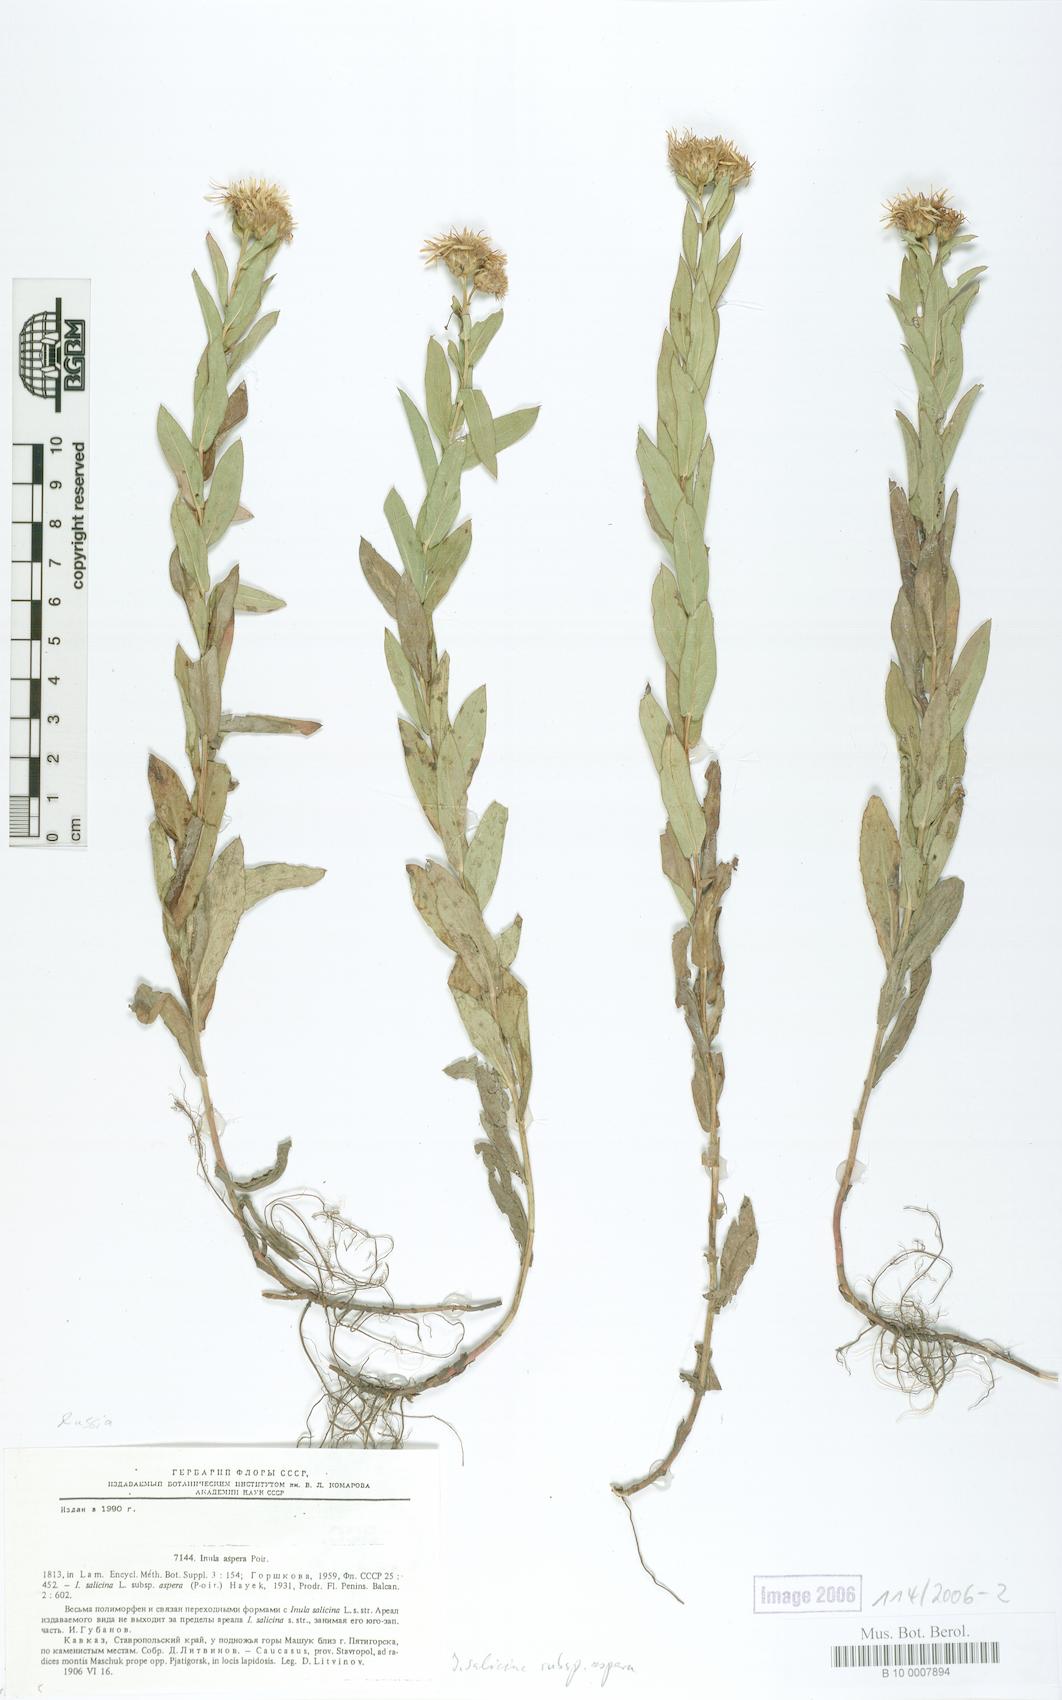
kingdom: Plantae
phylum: Tracheophyta
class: Magnoliopsida
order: Asterales
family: Asteraceae
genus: Pentanema
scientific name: Pentanema salicinum
